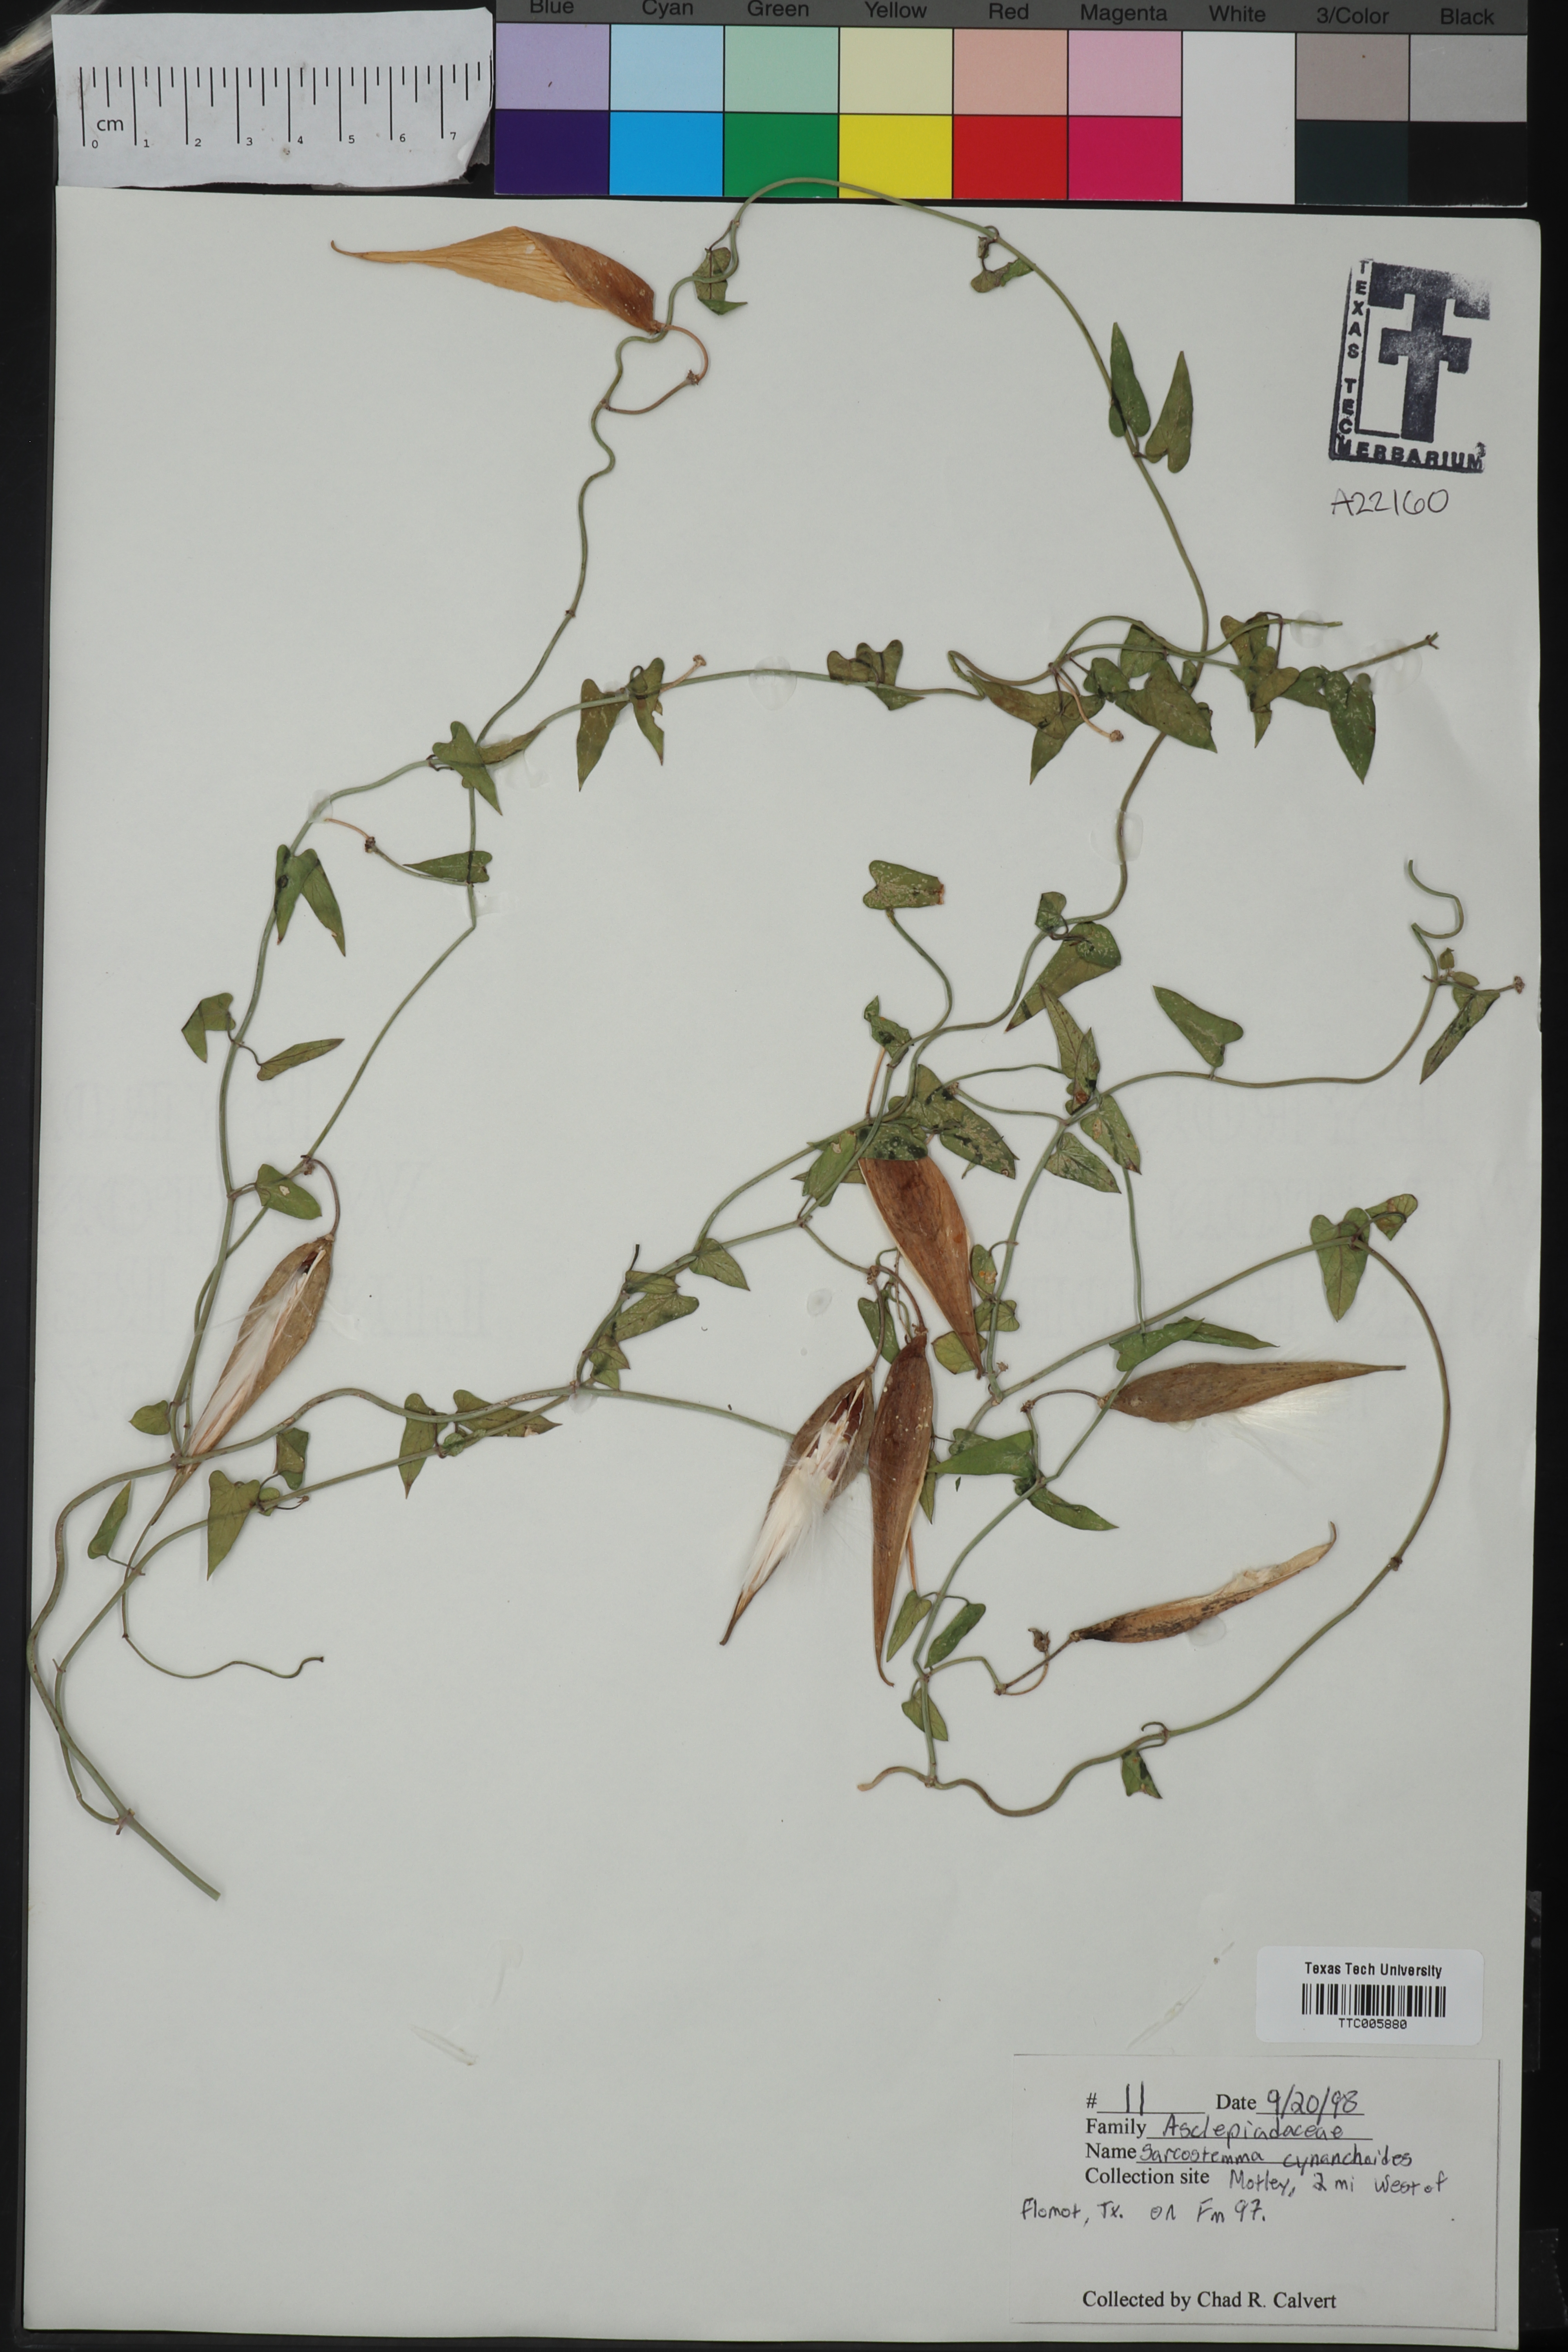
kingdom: Plantae
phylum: Tracheophyta
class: Magnoliopsida
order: Gentianales
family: Apocynaceae
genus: Funastrum
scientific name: Funastrum cynanchoides
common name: Climbing-milkweed
